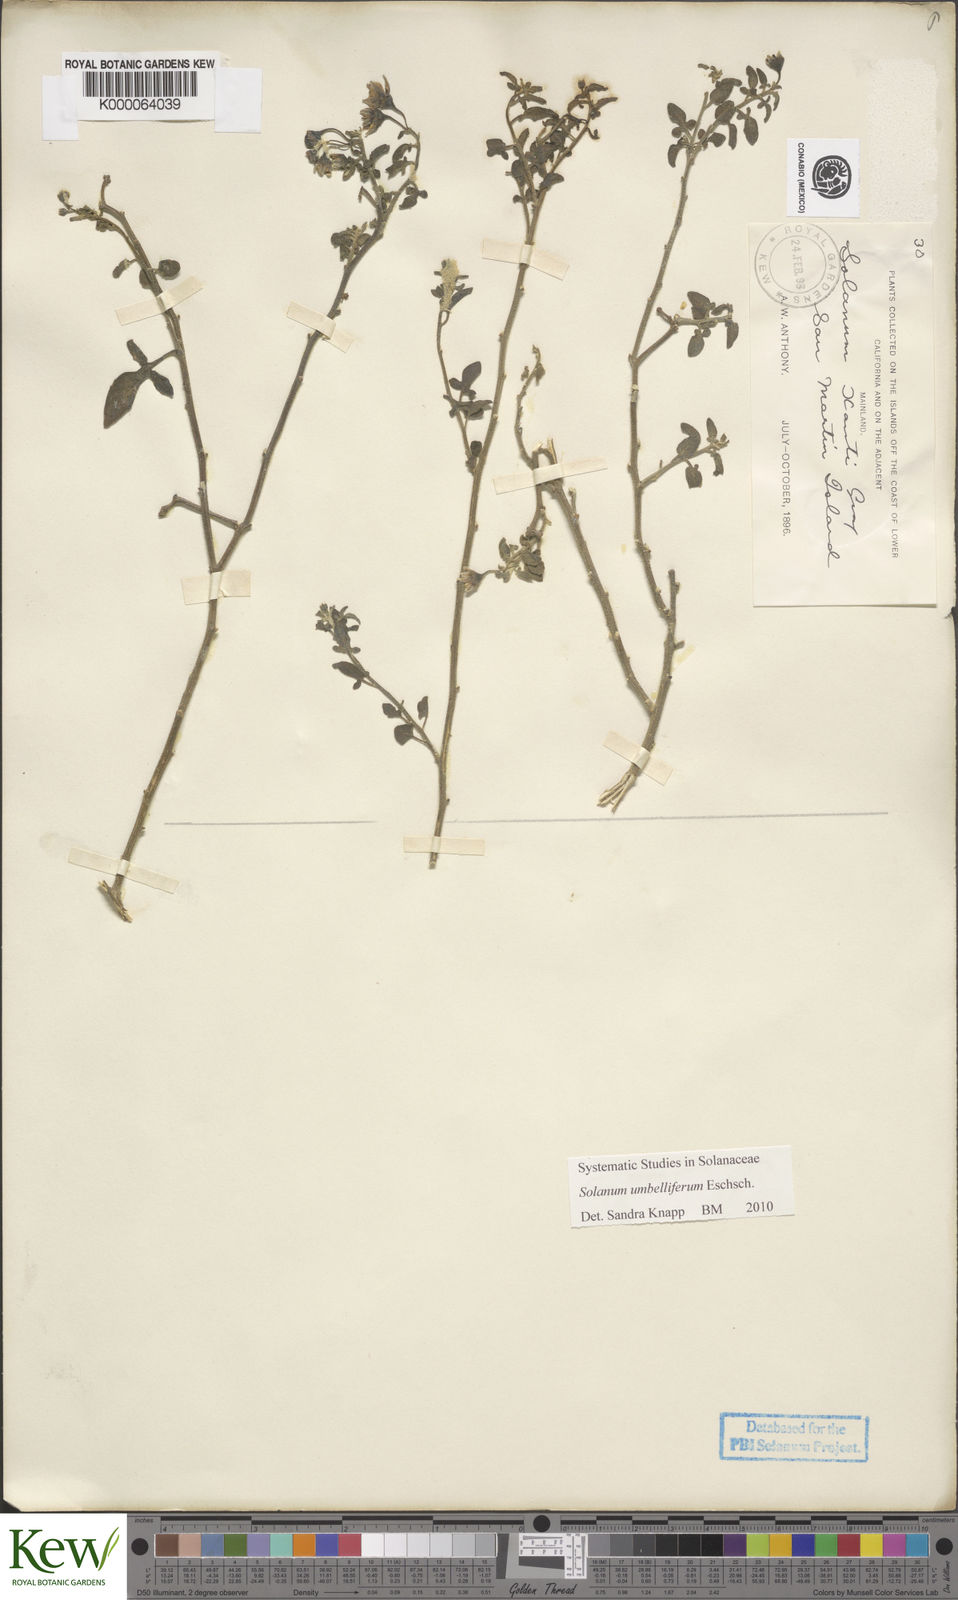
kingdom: Plantae
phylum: Tracheophyta
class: Magnoliopsida
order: Solanales
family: Solanaceae
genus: Solanum
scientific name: Solanum umbelliferum
